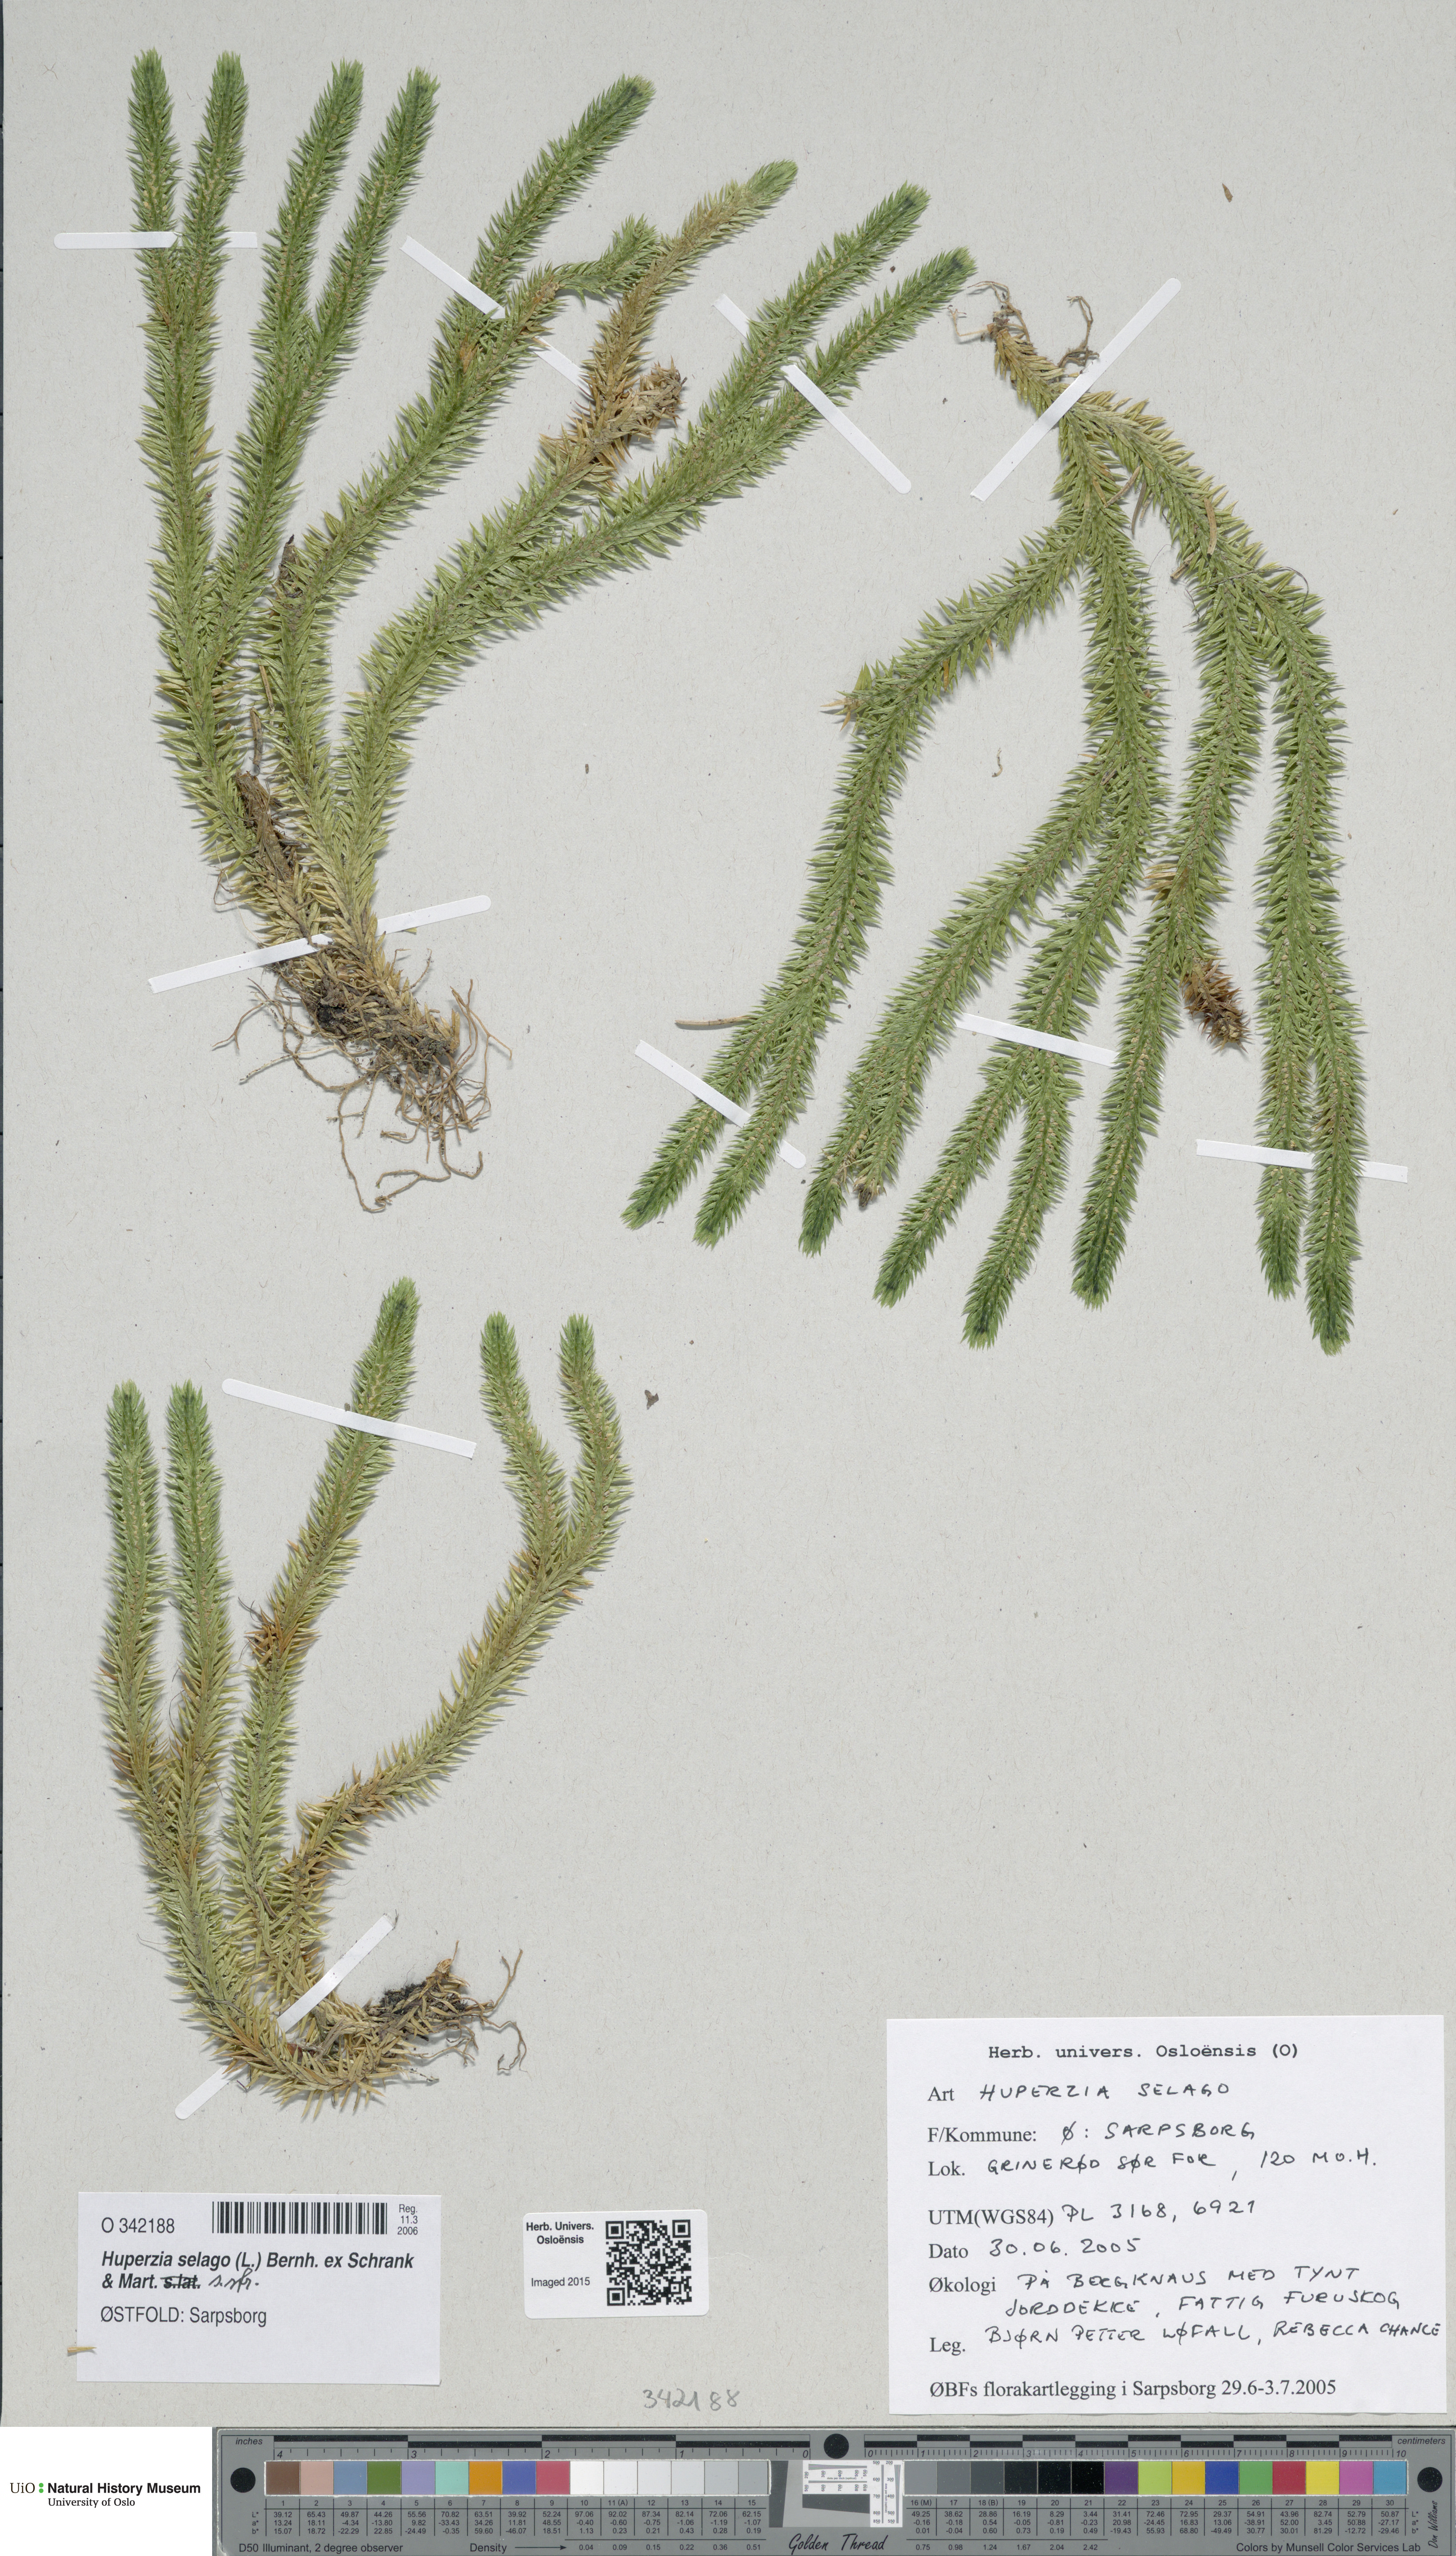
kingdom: Plantae
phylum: Tracheophyta
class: Lycopodiopsida
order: Lycopodiales
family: Lycopodiaceae
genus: Huperzia
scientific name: Huperzia selago
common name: Northern firmoss
